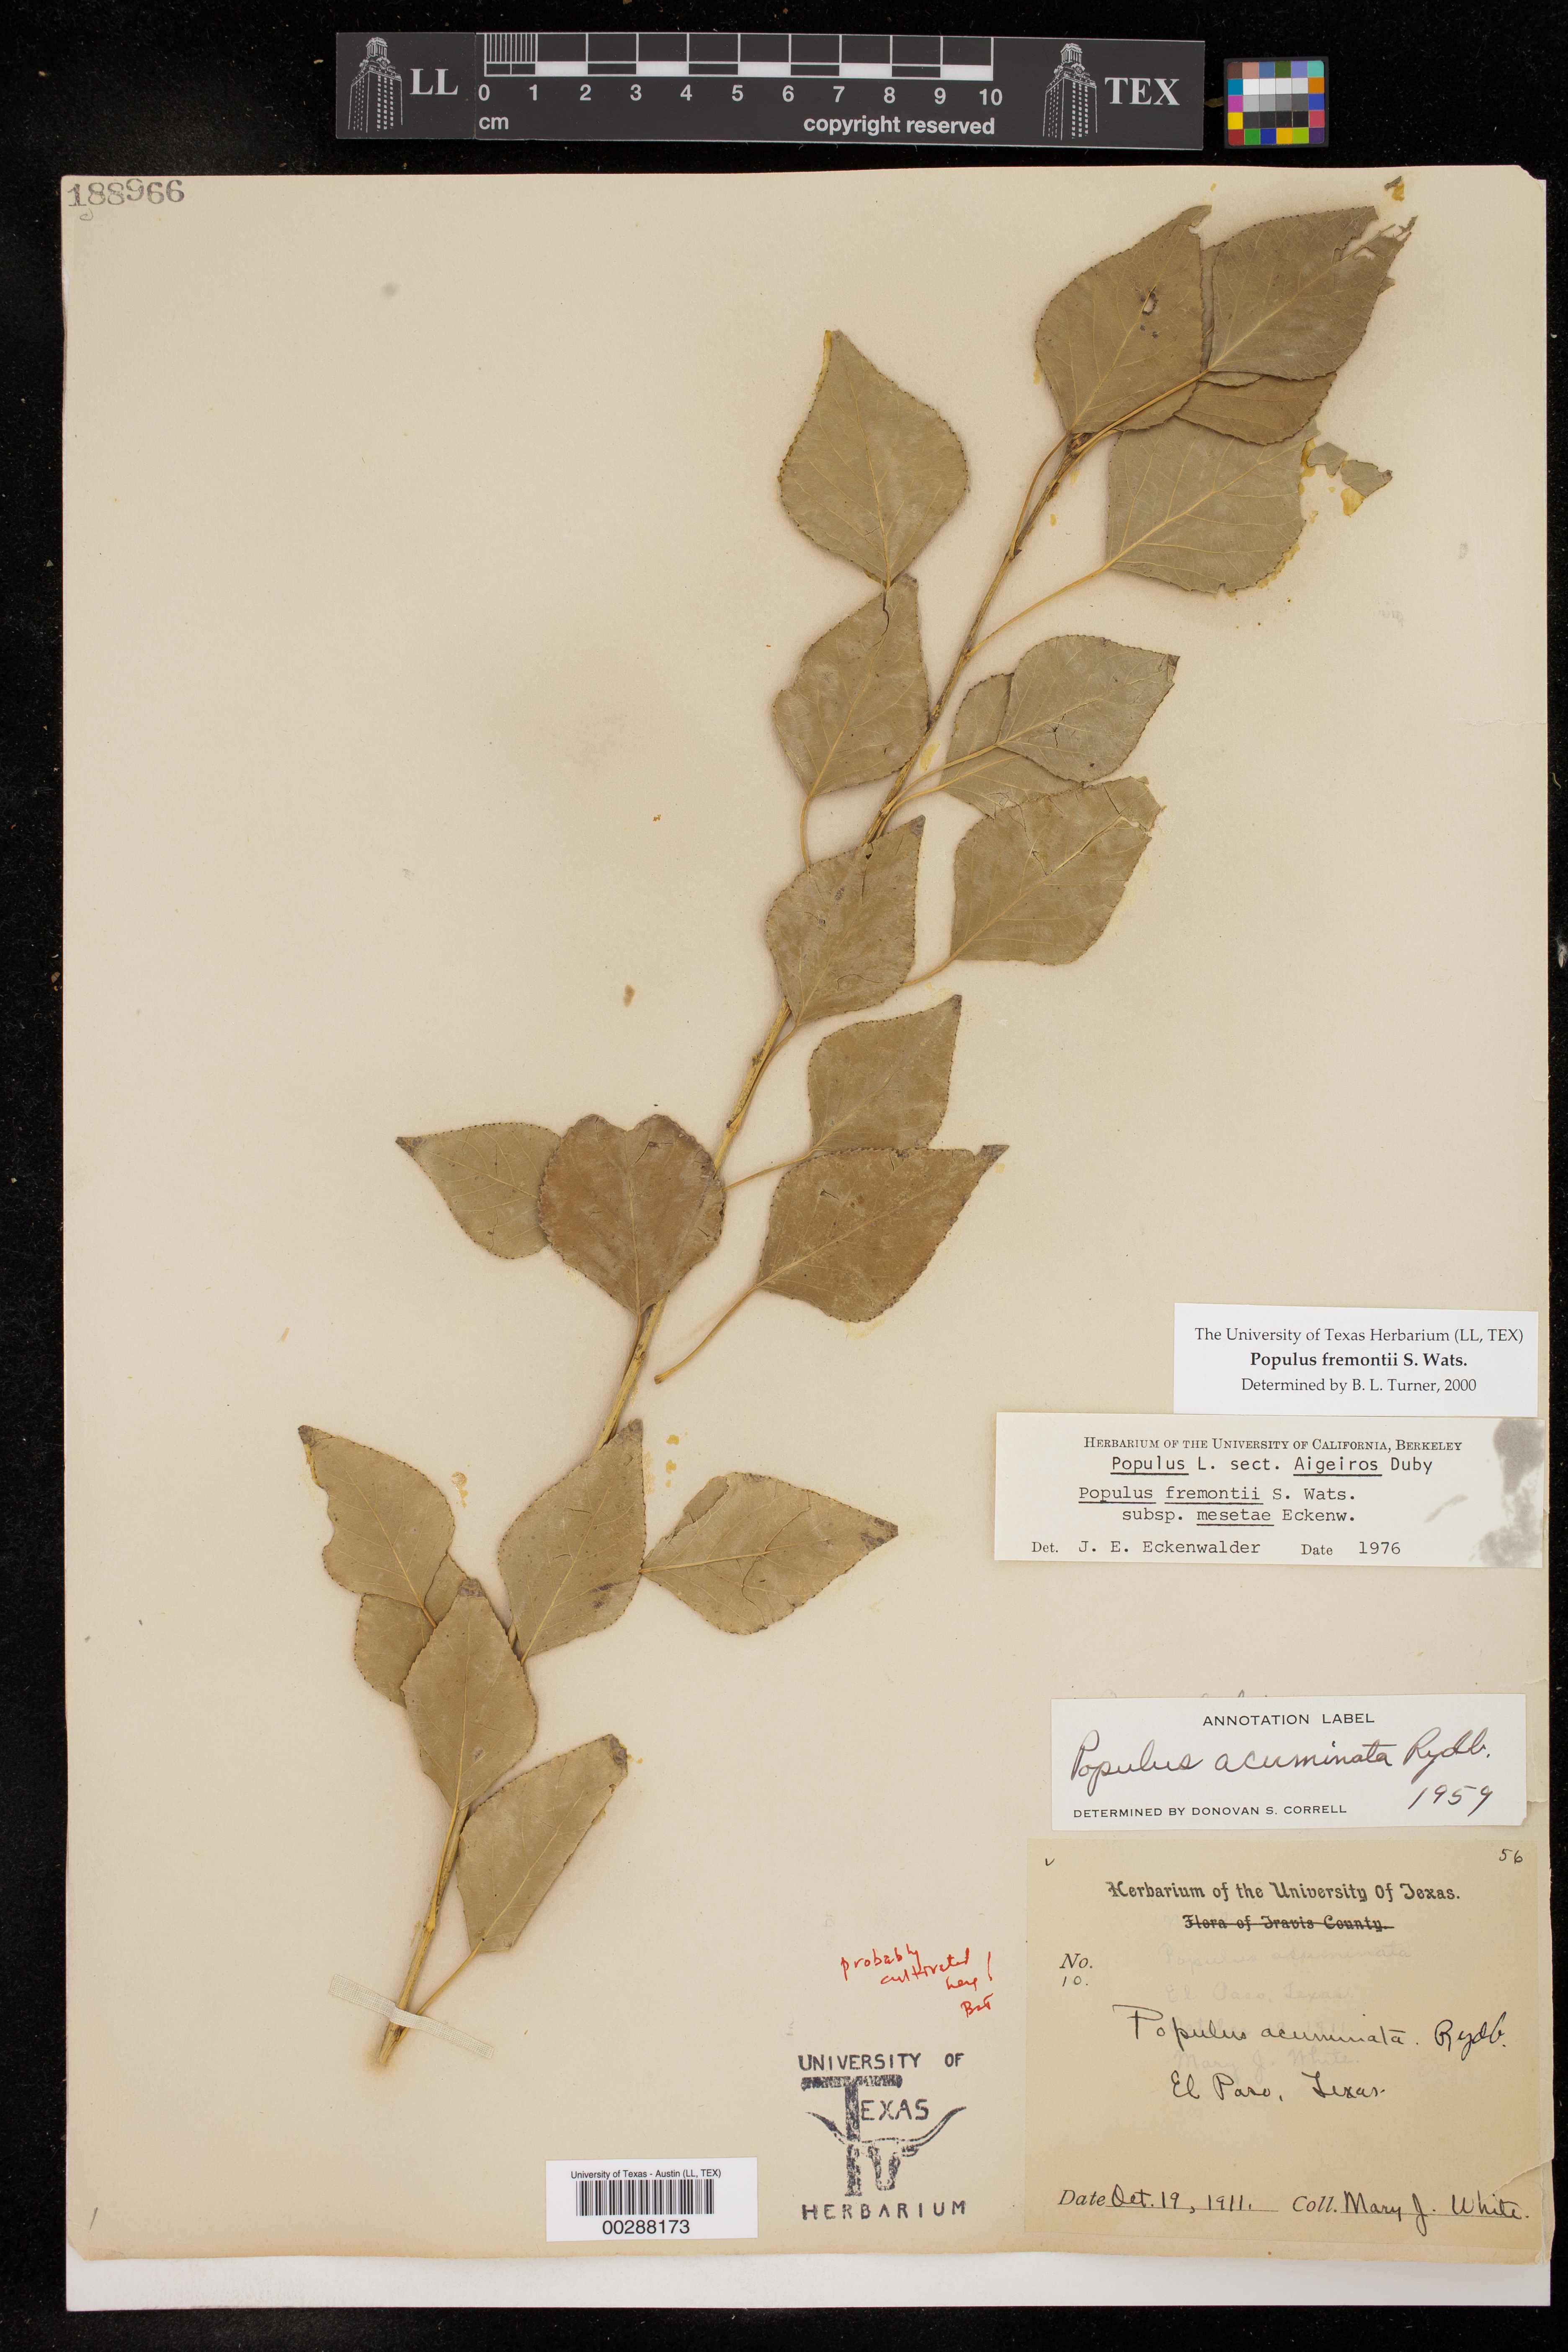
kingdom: Plantae
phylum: Tracheophyta
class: Magnoliopsida
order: Malpighiales
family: Salicaceae
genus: Populus
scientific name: Populus fremontii
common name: Fremont's cottonwood
